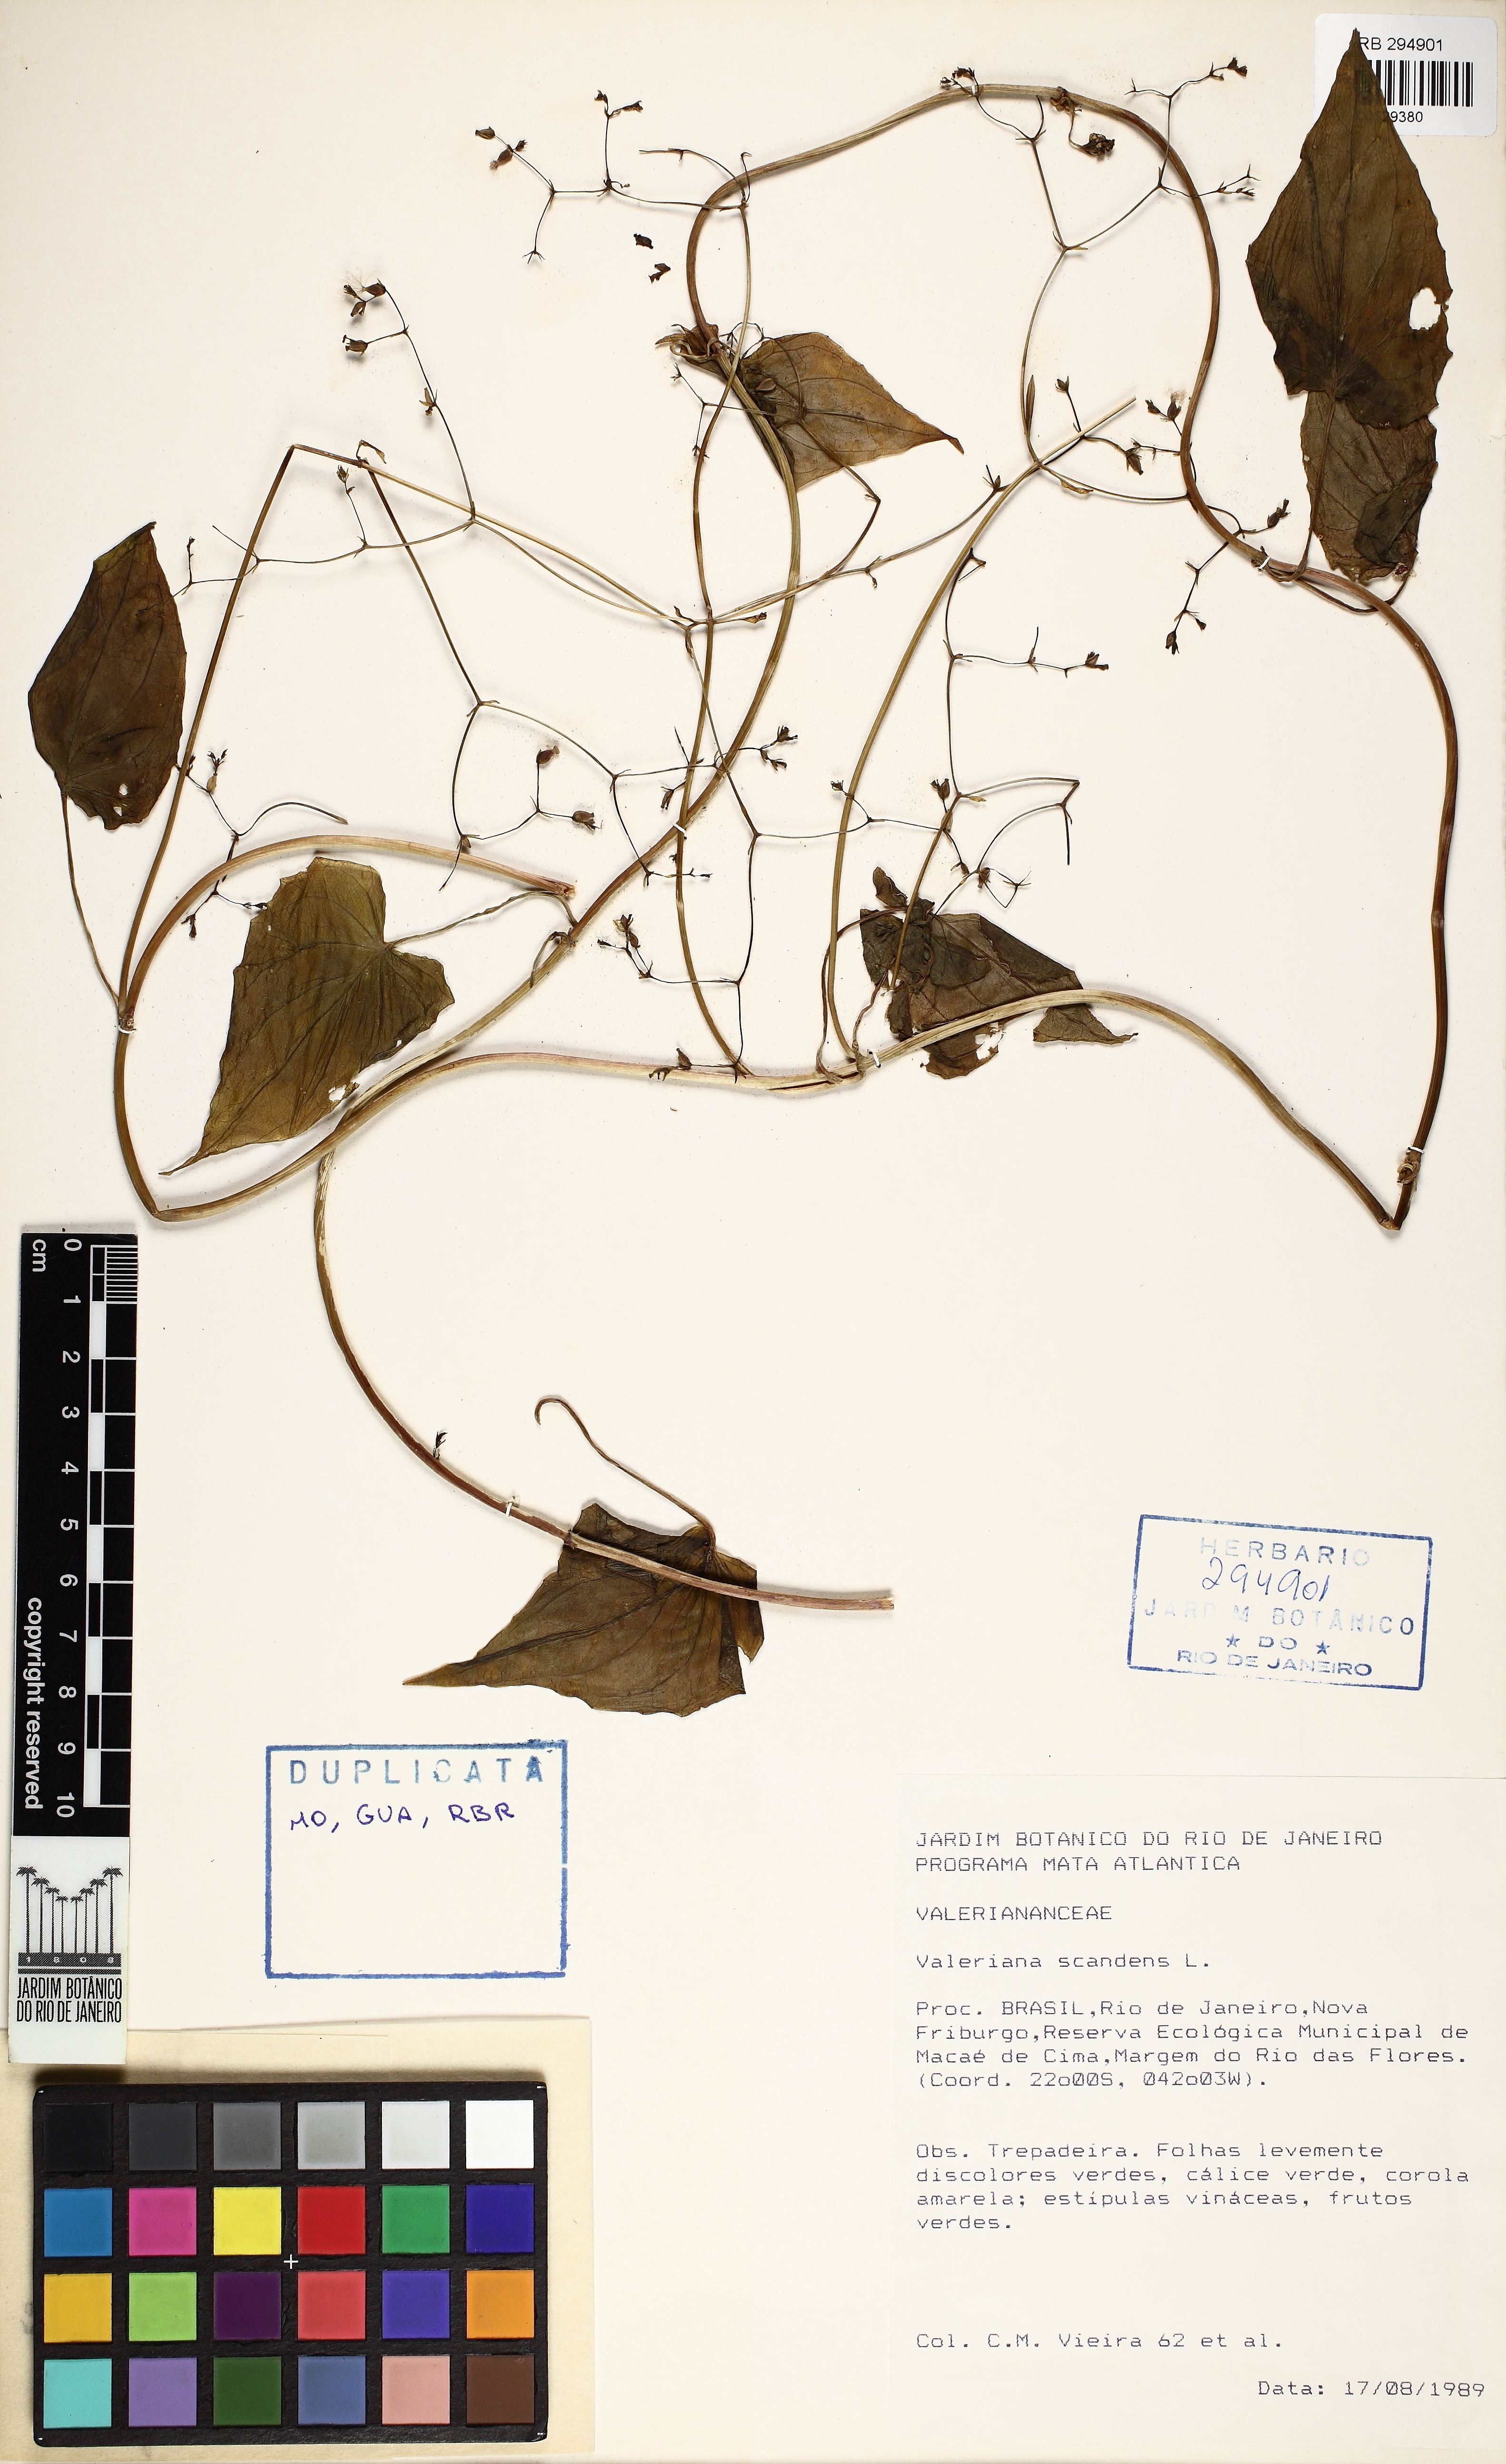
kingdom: Plantae
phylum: Tracheophyta
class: Magnoliopsida
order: Dipsacales
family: Caprifoliaceae
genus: Valeriana
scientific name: Valeriana scandens
